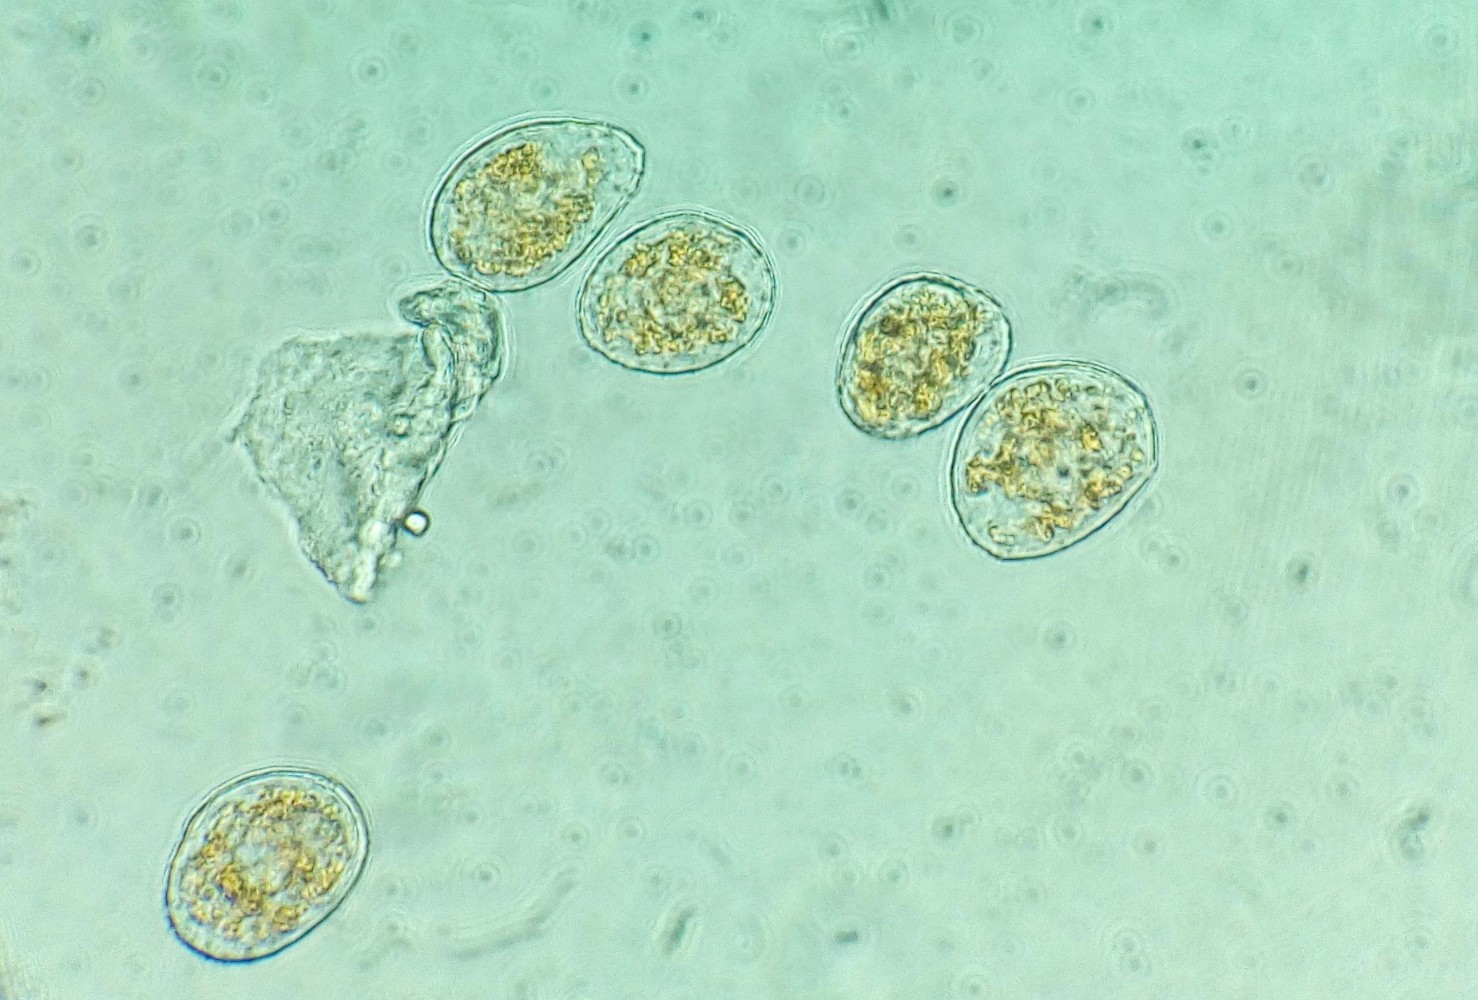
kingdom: Fungi
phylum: Basidiomycota
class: Pucciniomycetes
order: Pucciniales
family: Pucciniaceae
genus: Puccinia
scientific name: Puccinia pulverulenta
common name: dueurt-tvecellerust
